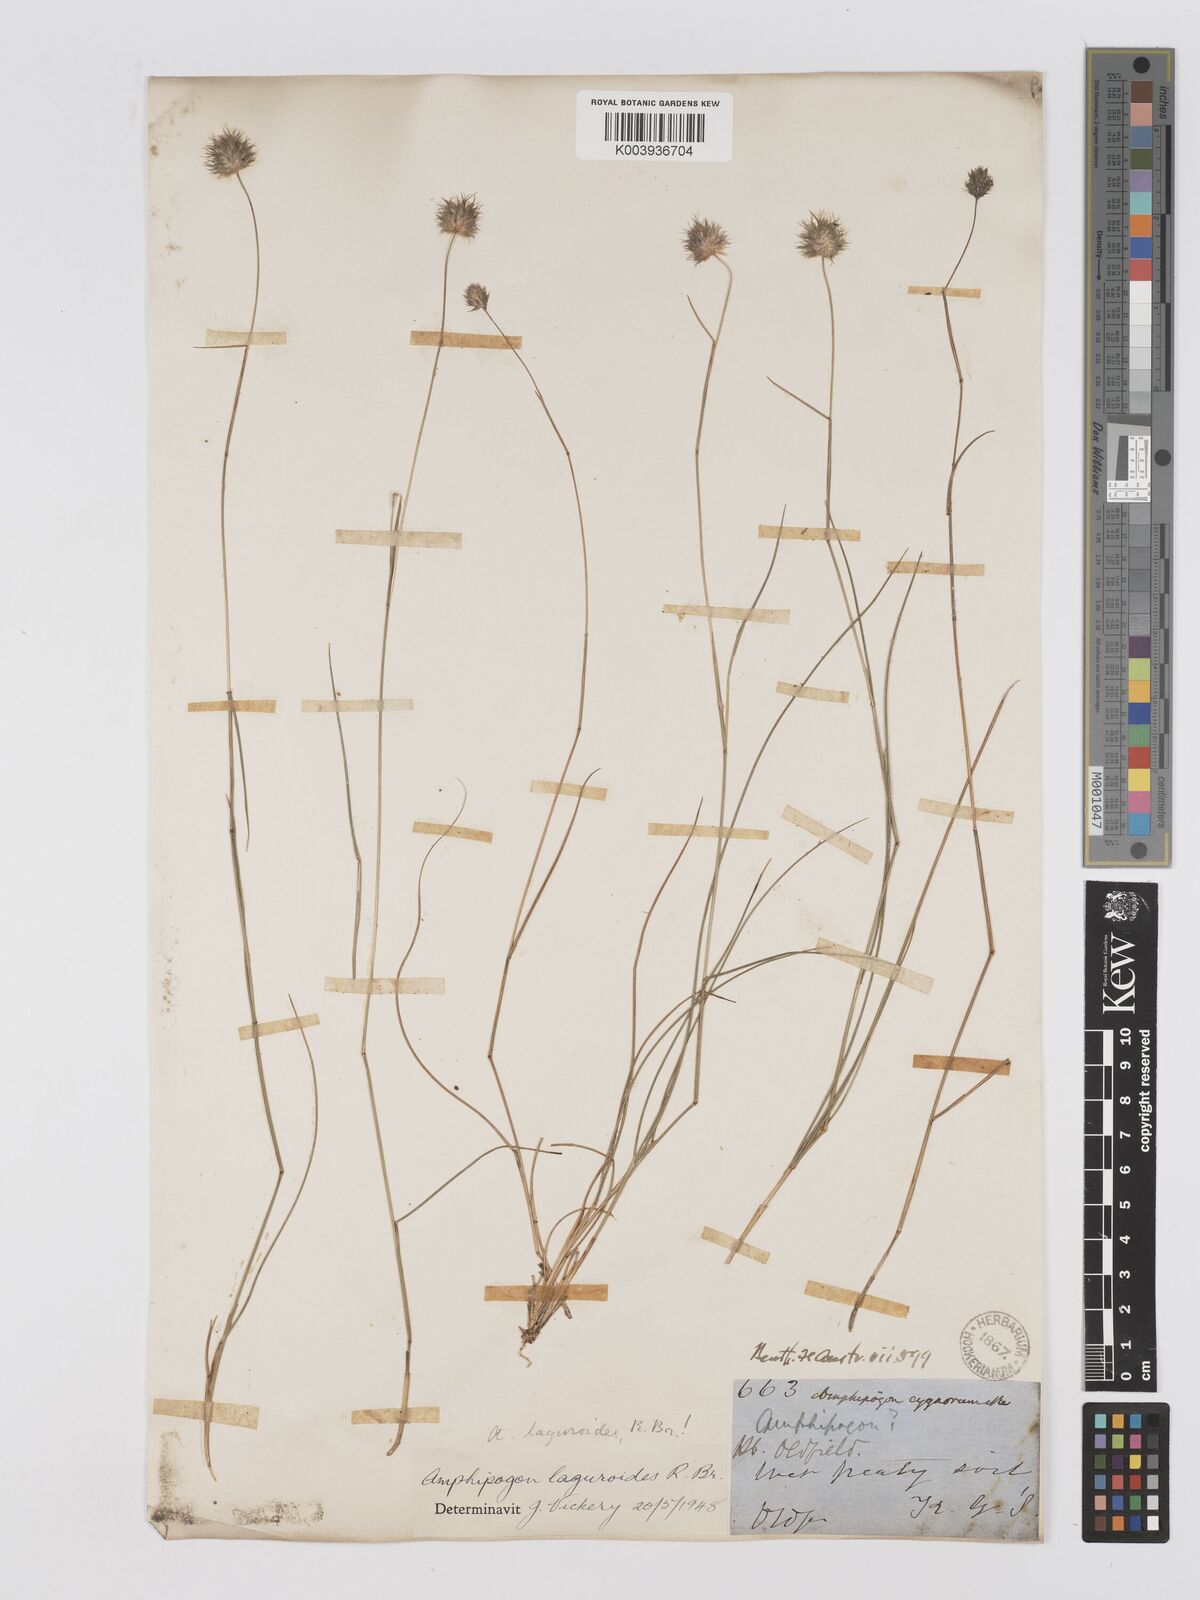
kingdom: Plantae
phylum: Tracheophyta
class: Liliopsida
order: Poales
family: Poaceae
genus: Amphipogon
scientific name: Amphipogon laguroides
